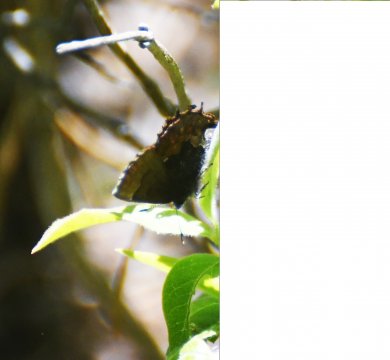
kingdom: Animalia
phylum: Arthropoda
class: Insecta
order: Lepidoptera
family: Lycaenidae
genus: Incisalia
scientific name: Incisalia henrici
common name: Henry's Elfin
